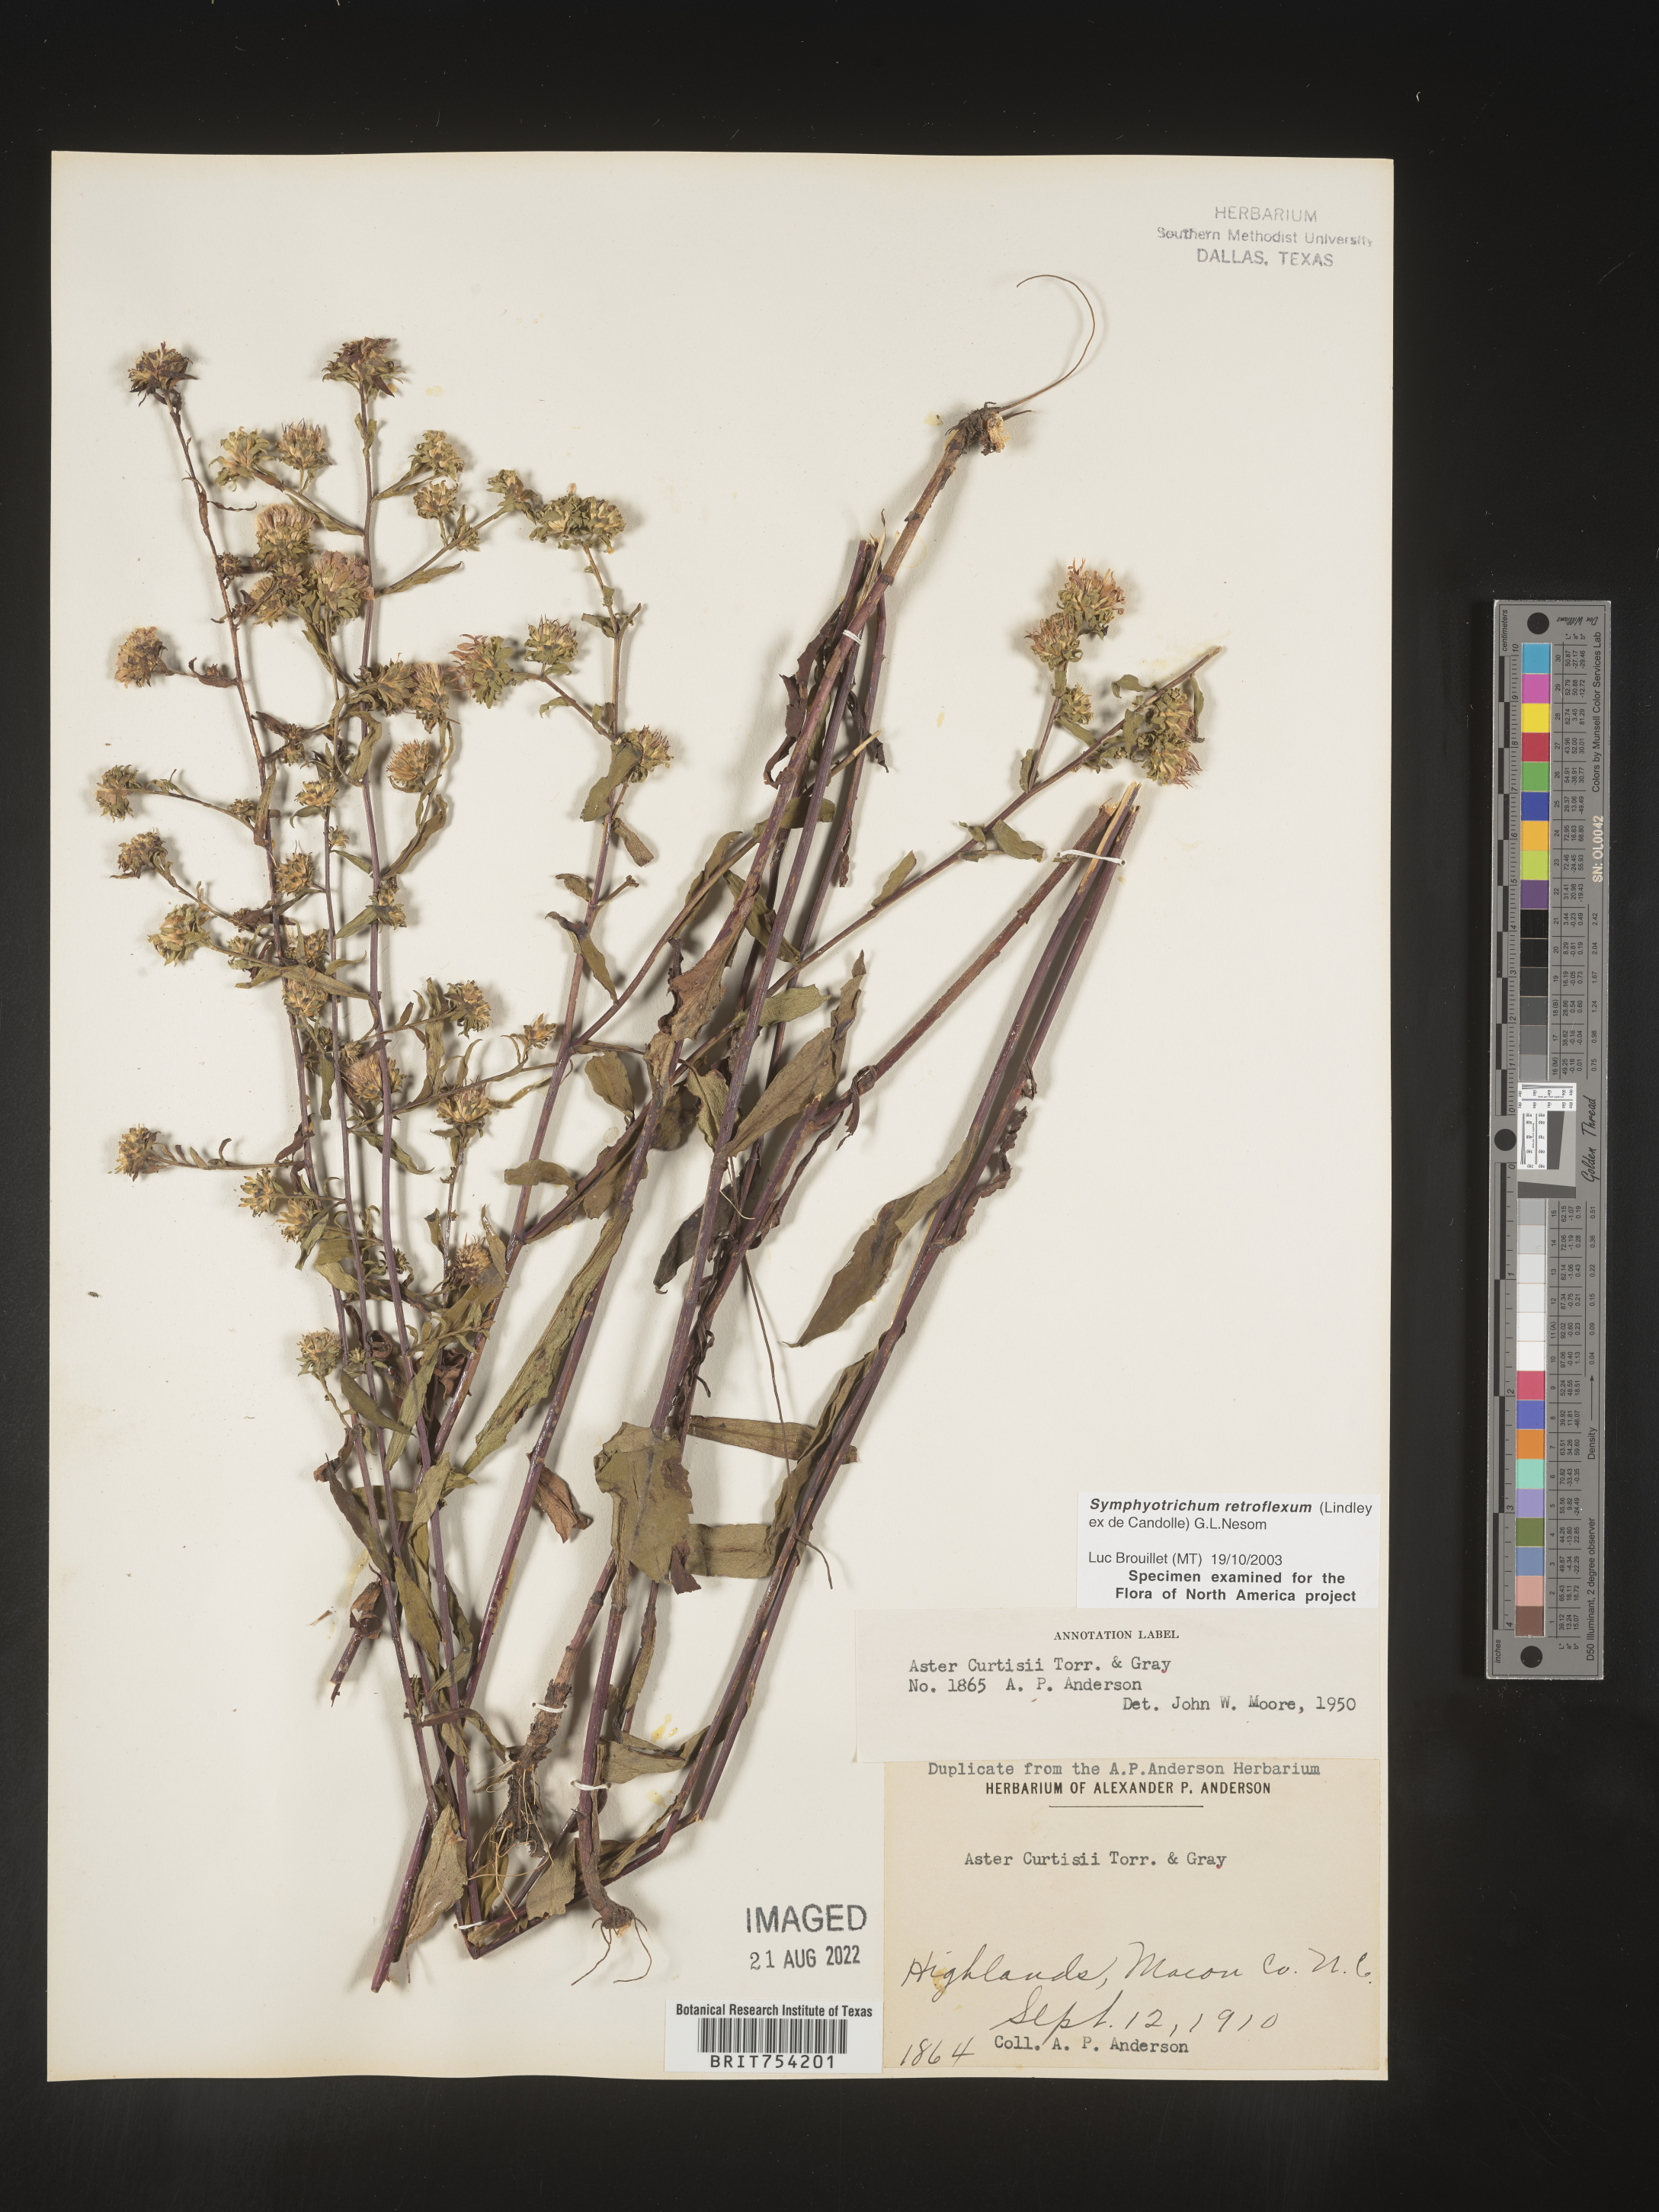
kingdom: Plantae
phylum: Tracheophyta
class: Magnoliopsida
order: Asterales
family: Asteraceae
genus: Symphyotrichum
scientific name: Symphyotrichum retroflexum
